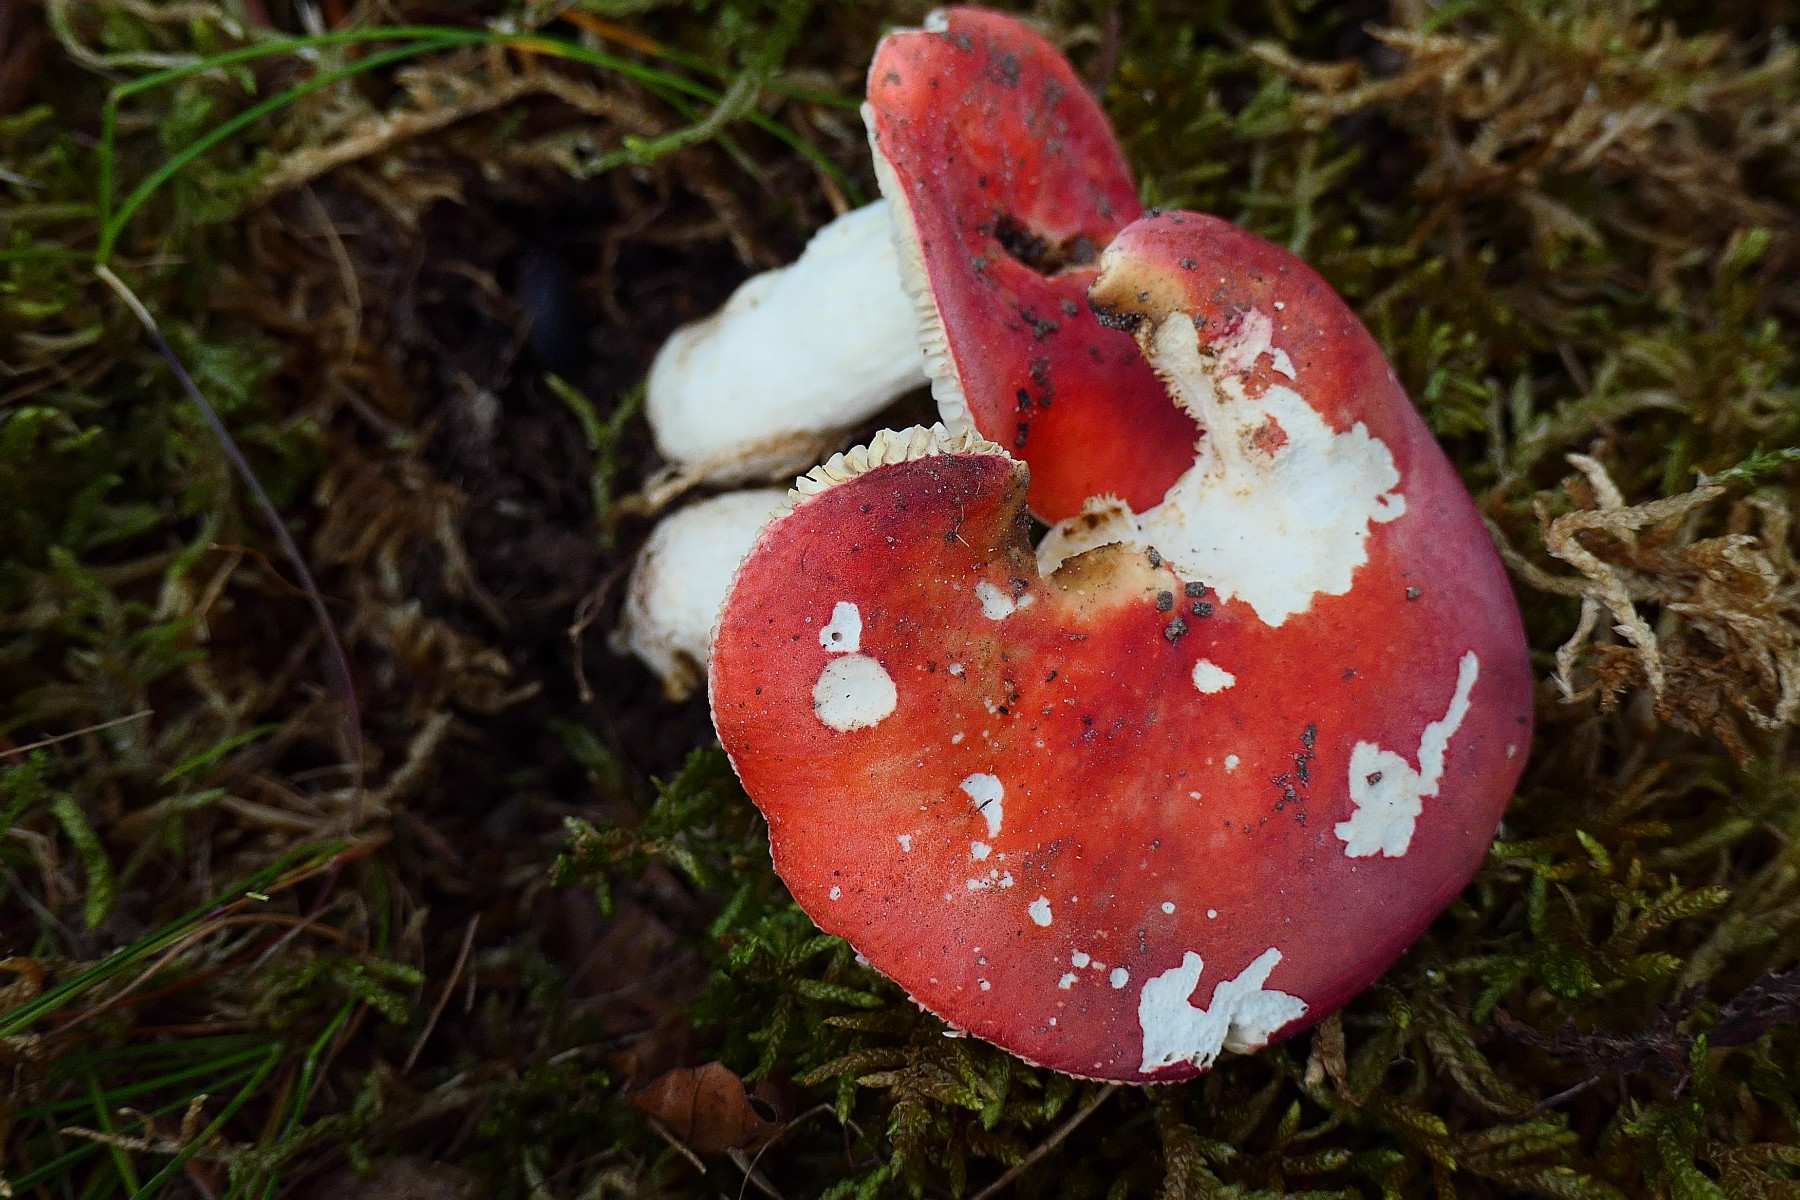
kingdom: Fungi
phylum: Basidiomycota
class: Agaricomycetes
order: Russulales
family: Russulaceae
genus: Russula
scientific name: Russula rosea
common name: fastkødet skørhat
